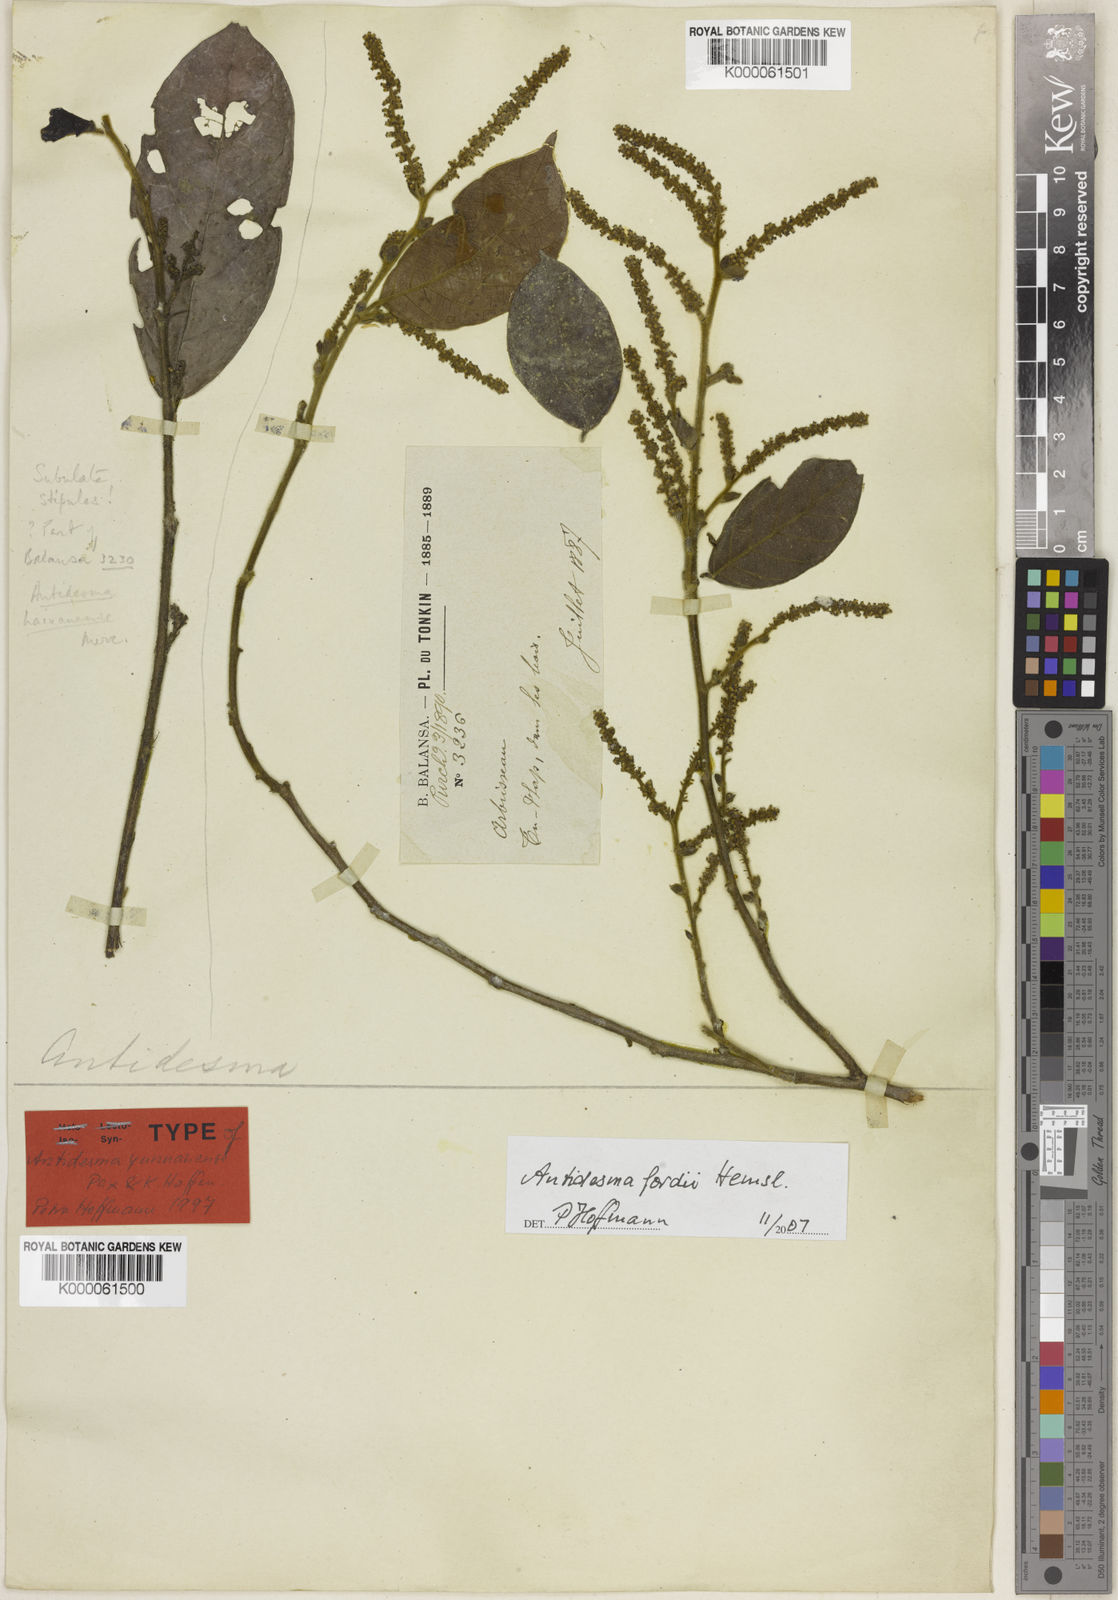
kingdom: Plantae
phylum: Tracheophyta
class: Magnoliopsida
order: Malpighiales
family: Phyllanthaceae
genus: Antidesma
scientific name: Antidesma fordii
